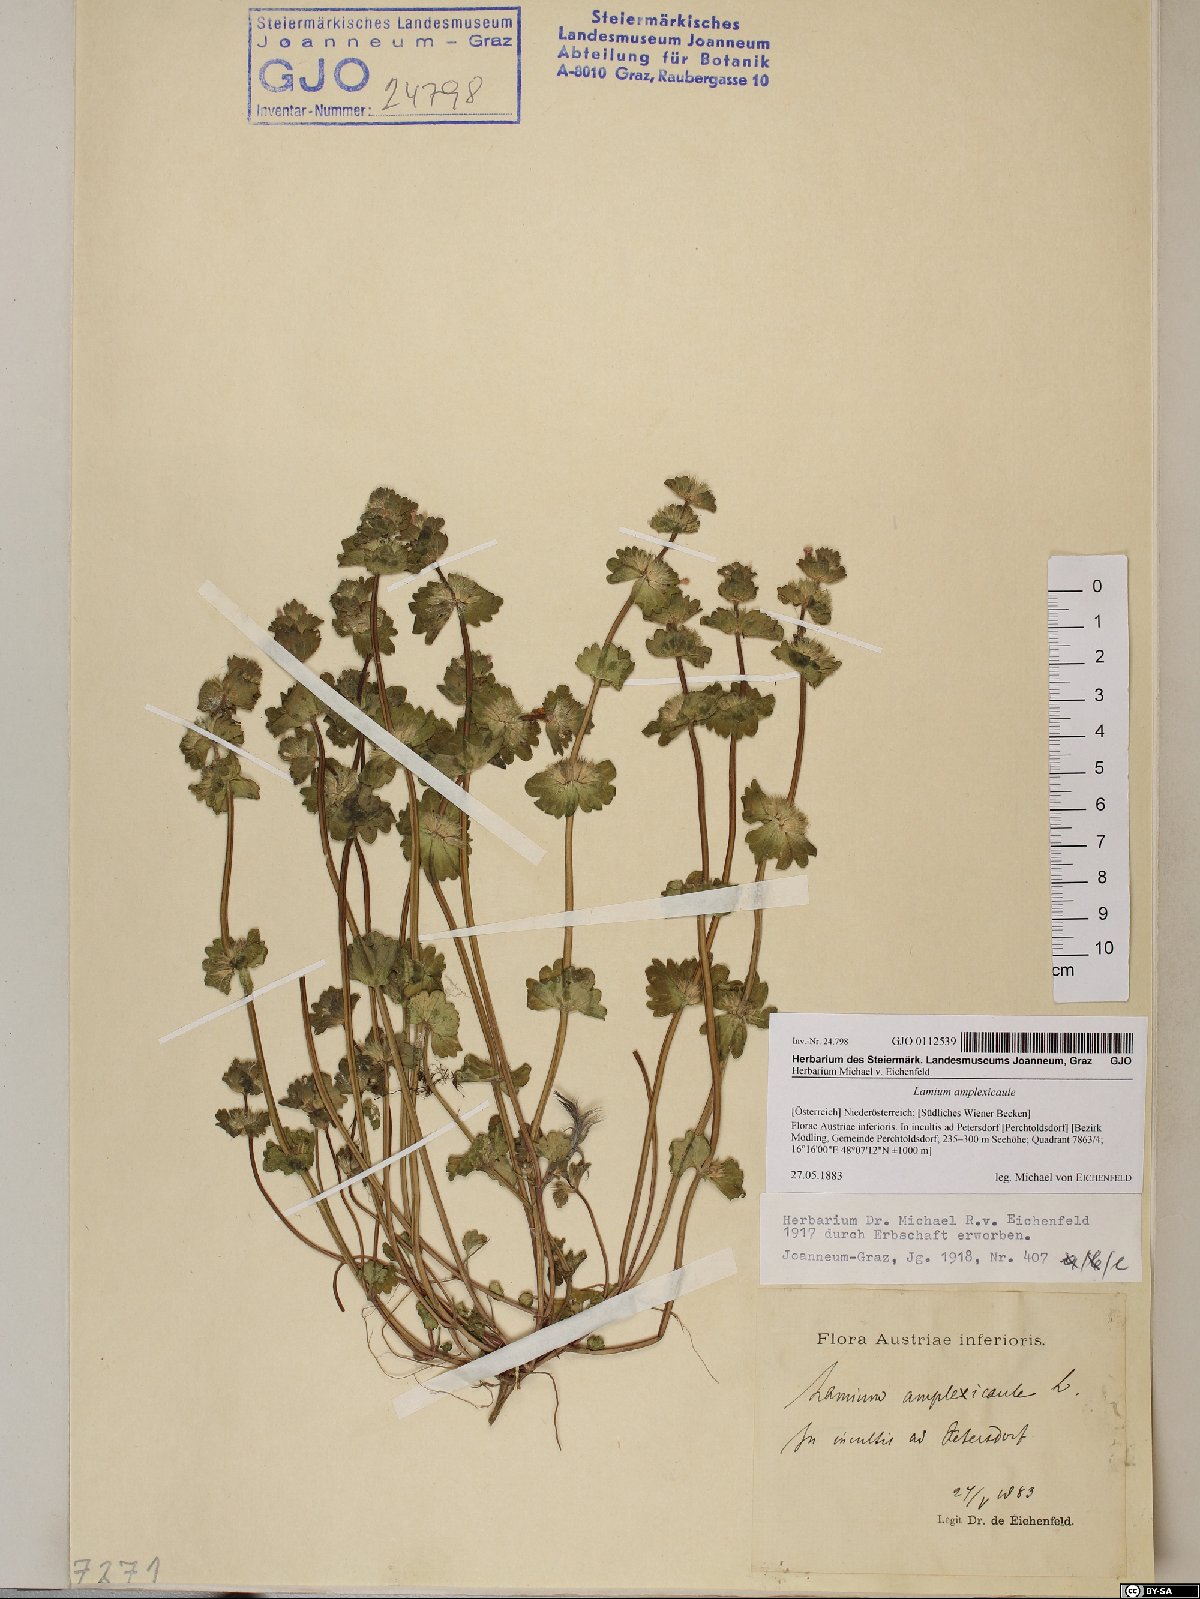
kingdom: Plantae
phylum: Tracheophyta
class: Magnoliopsida
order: Lamiales
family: Lamiaceae
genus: Lamium
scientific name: Lamium amplexicaule
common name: Henbit dead-nettle
